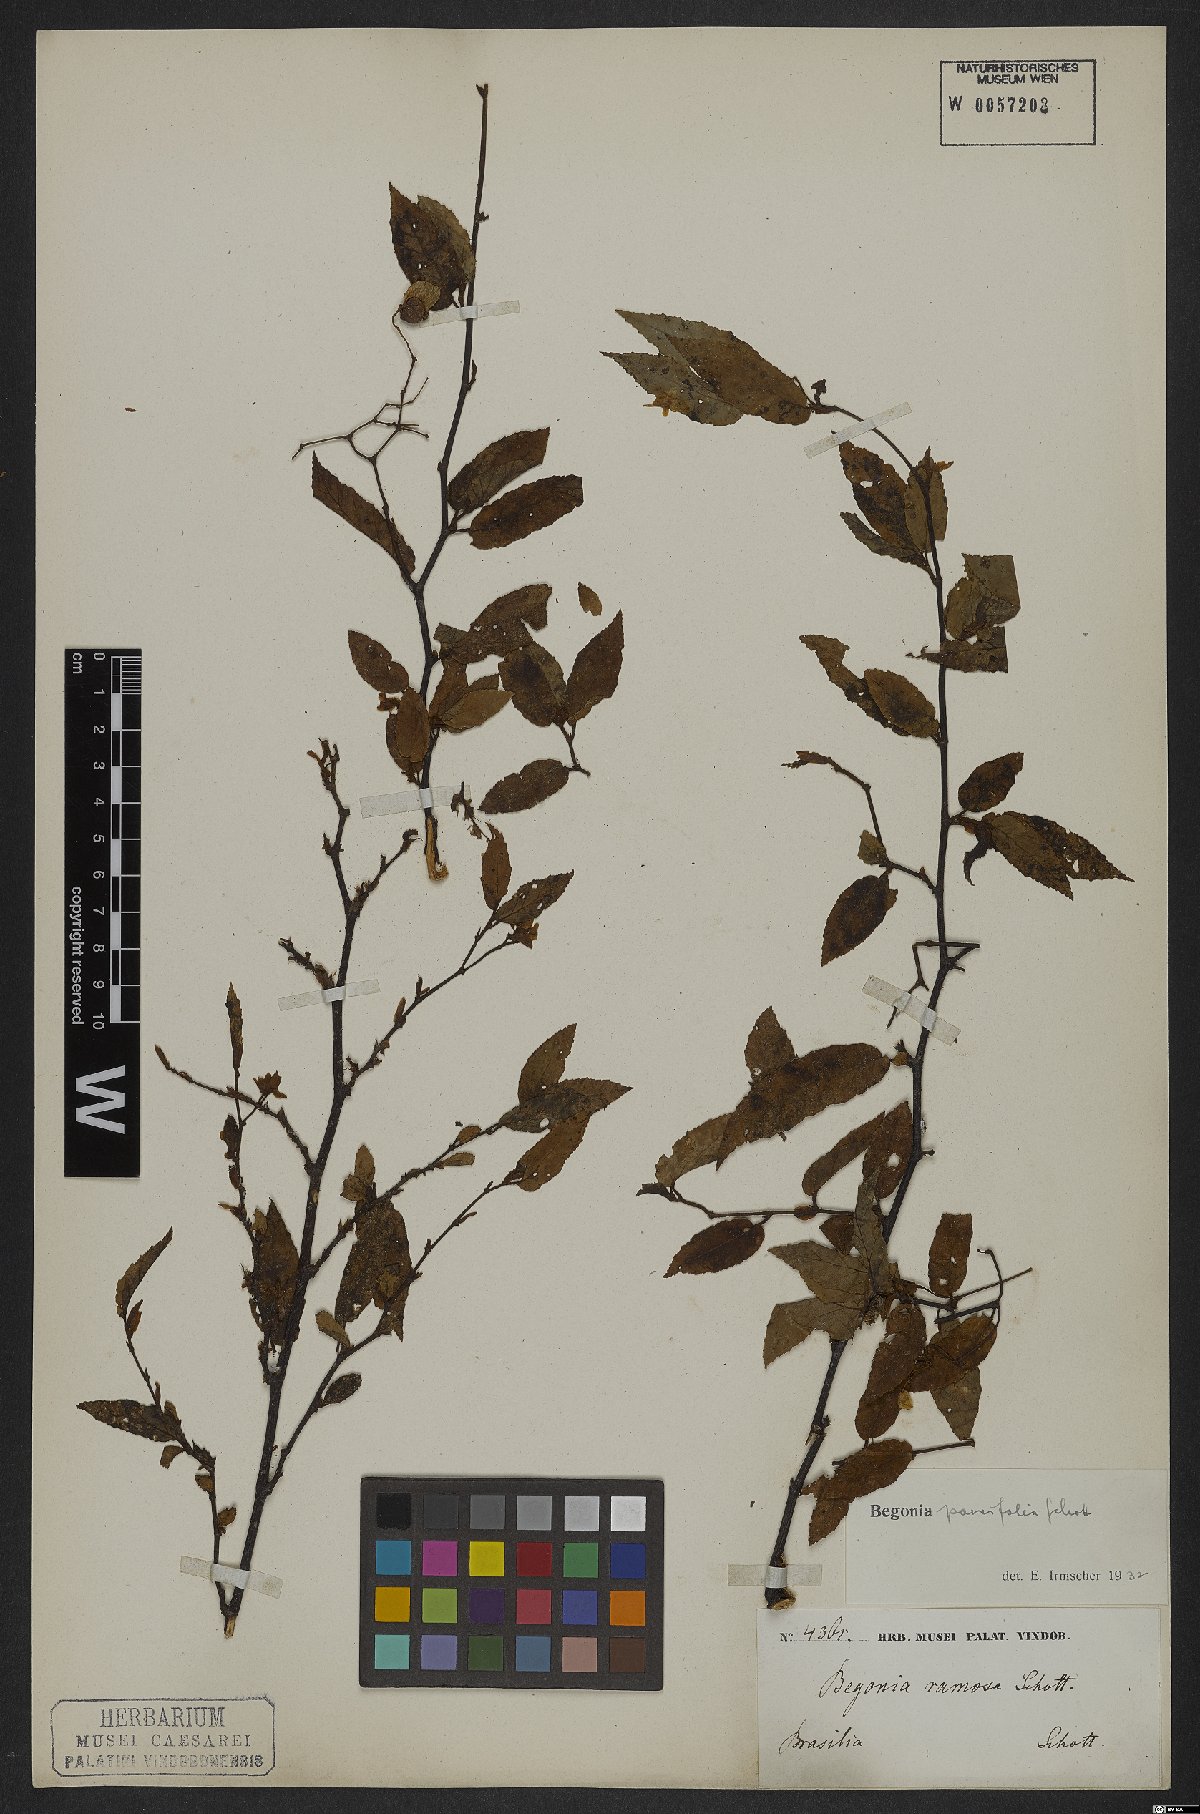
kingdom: Plantae
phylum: Tracheophyta
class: Magnoliopsida
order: Cucurbitales
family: Begoniaceae
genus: Begonia
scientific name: Begonia parvifolia
